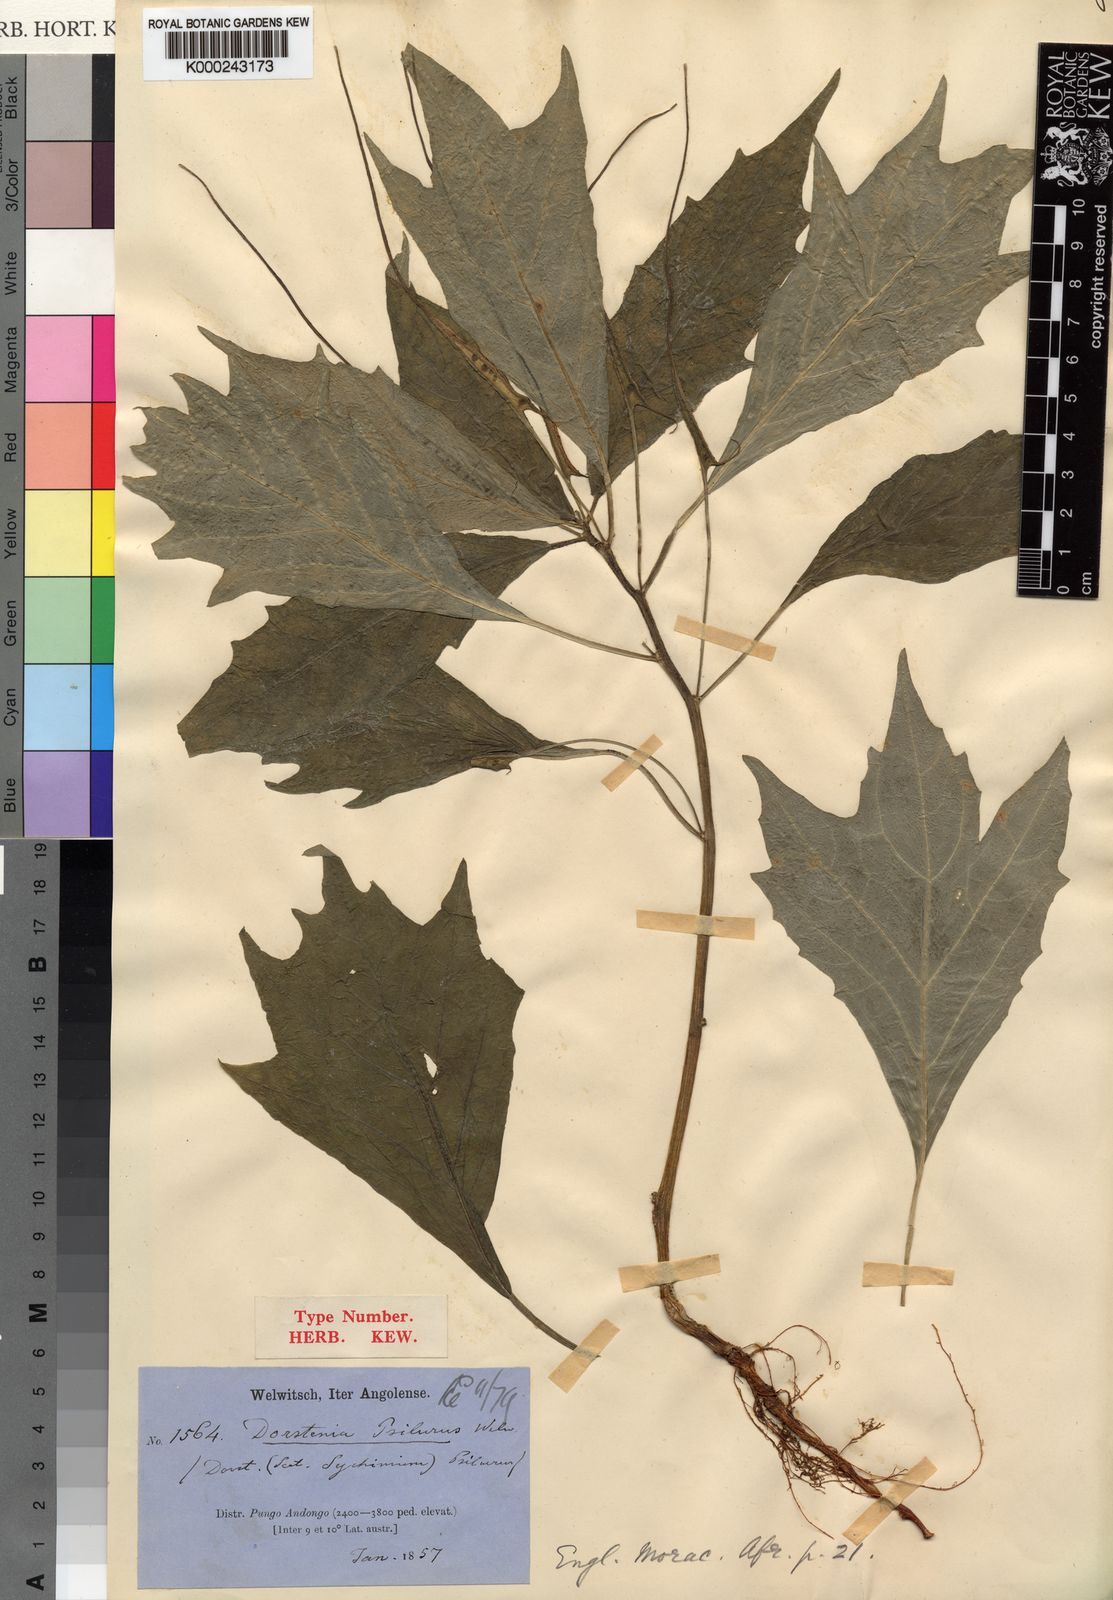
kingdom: Plantae
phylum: Tracheophyta
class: Magnoliopsida
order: Rosales
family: Moraceae
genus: Dorstenia
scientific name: Dorstenia psilurus
